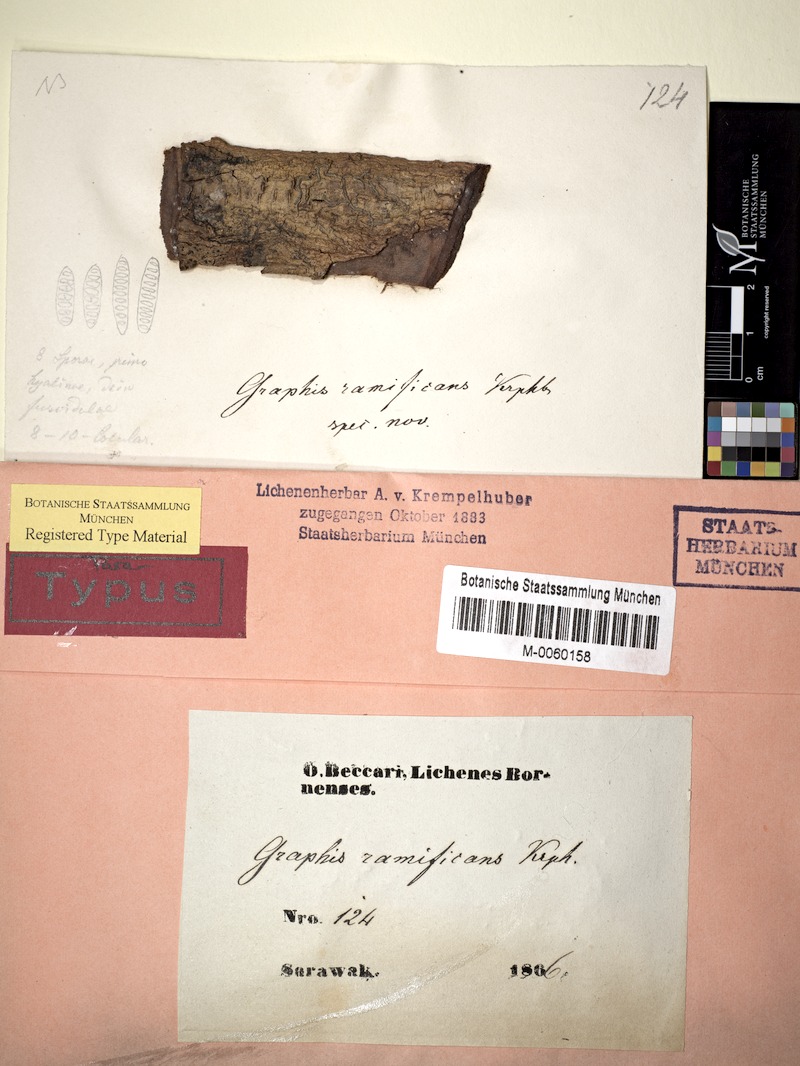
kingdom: Fungi
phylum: Ascomycota
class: Lecanoromycetes
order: Ostropales
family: Graphidaceae
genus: Sarcographa
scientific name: Sarcographa ramificans
